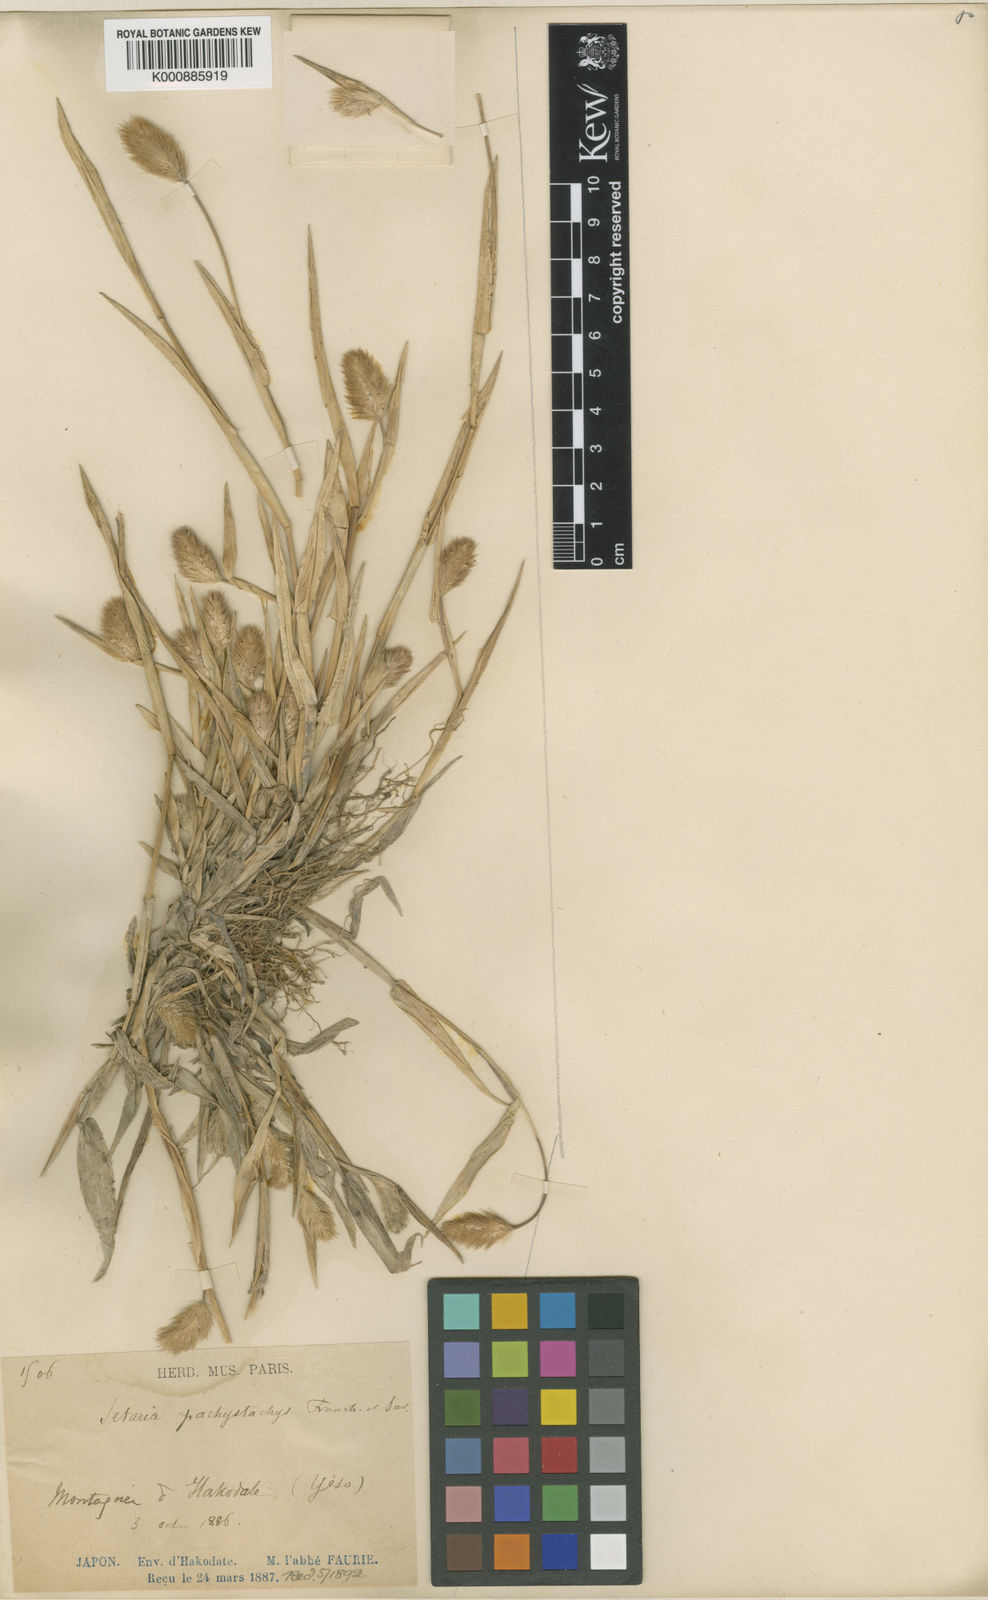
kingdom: Plantae
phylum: Tracheophyta
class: Liliopsida
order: Poales
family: Poaceae
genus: Setaria
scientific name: Setaria viridis
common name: Green bristlegrass
